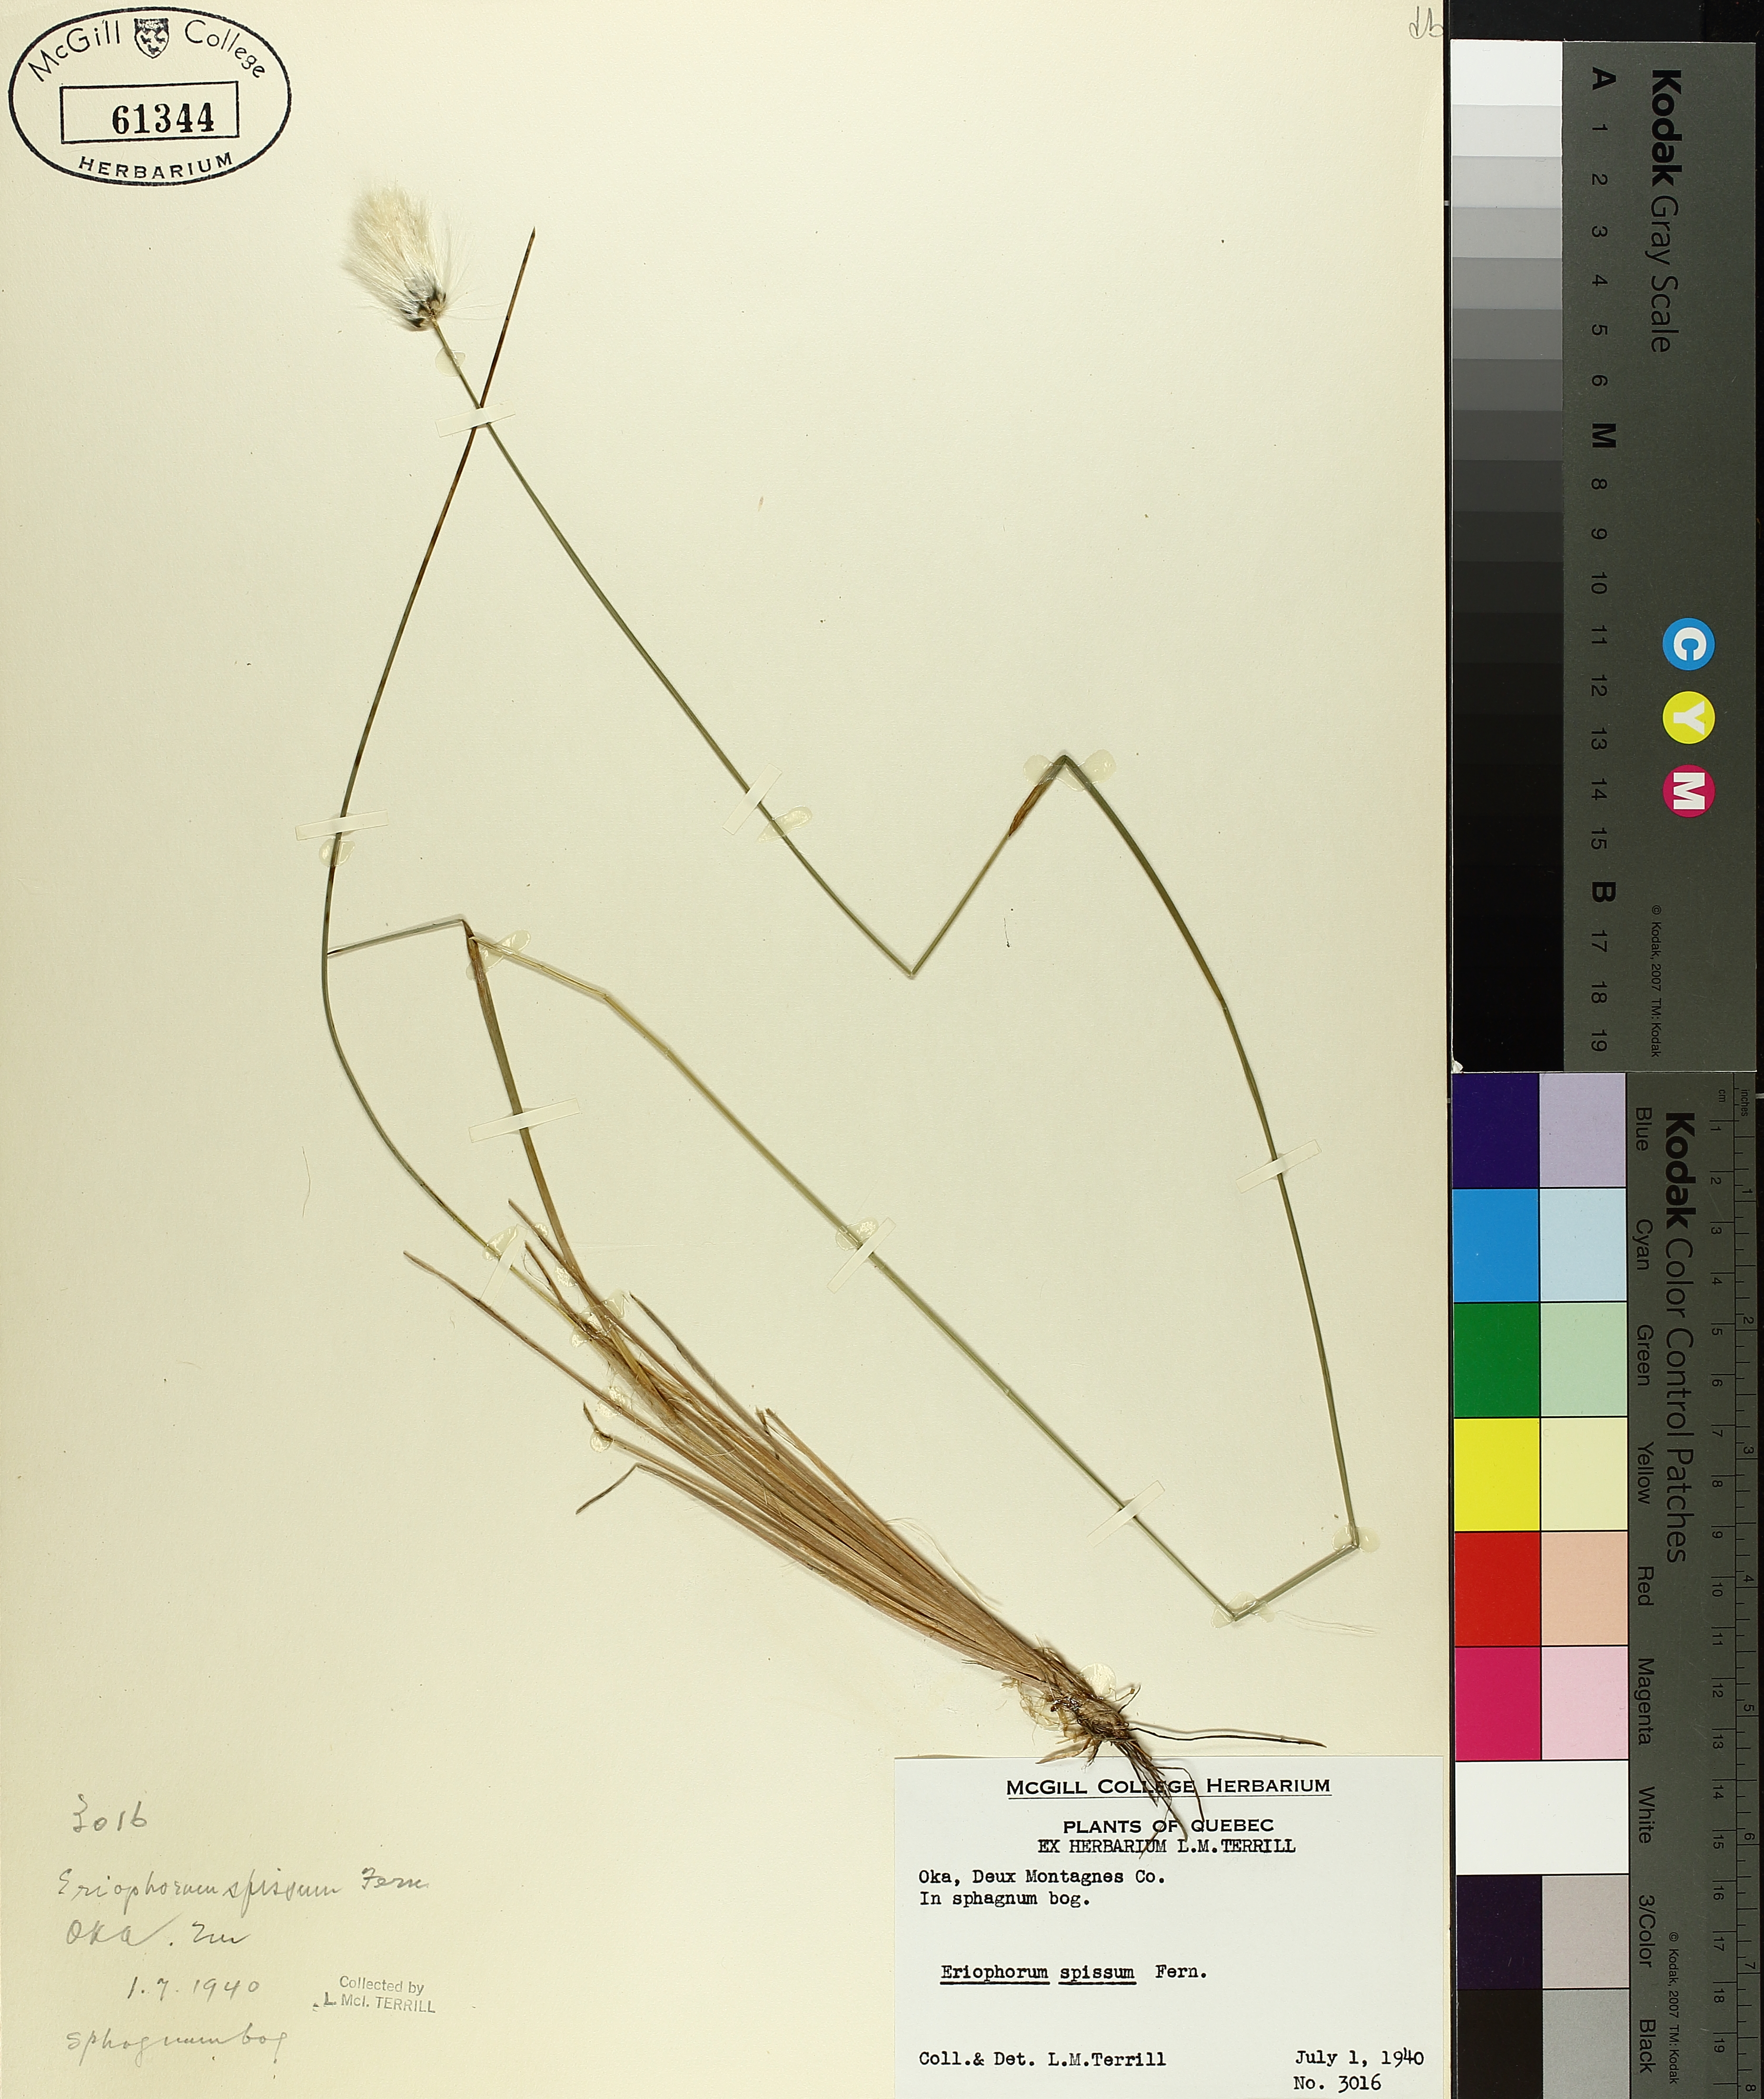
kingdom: Plantae
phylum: Tracheophyta
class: Liliopsida
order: Poales
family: Cyperaceae
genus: Eriophorum
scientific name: Eriophorum vaginatum
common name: Hare's-tail cottongrass
